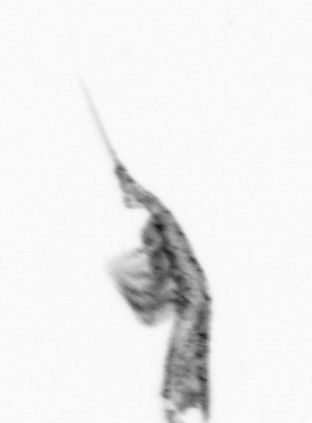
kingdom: Animalia
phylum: Arthropoda
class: Copepoda
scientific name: Copepoda
